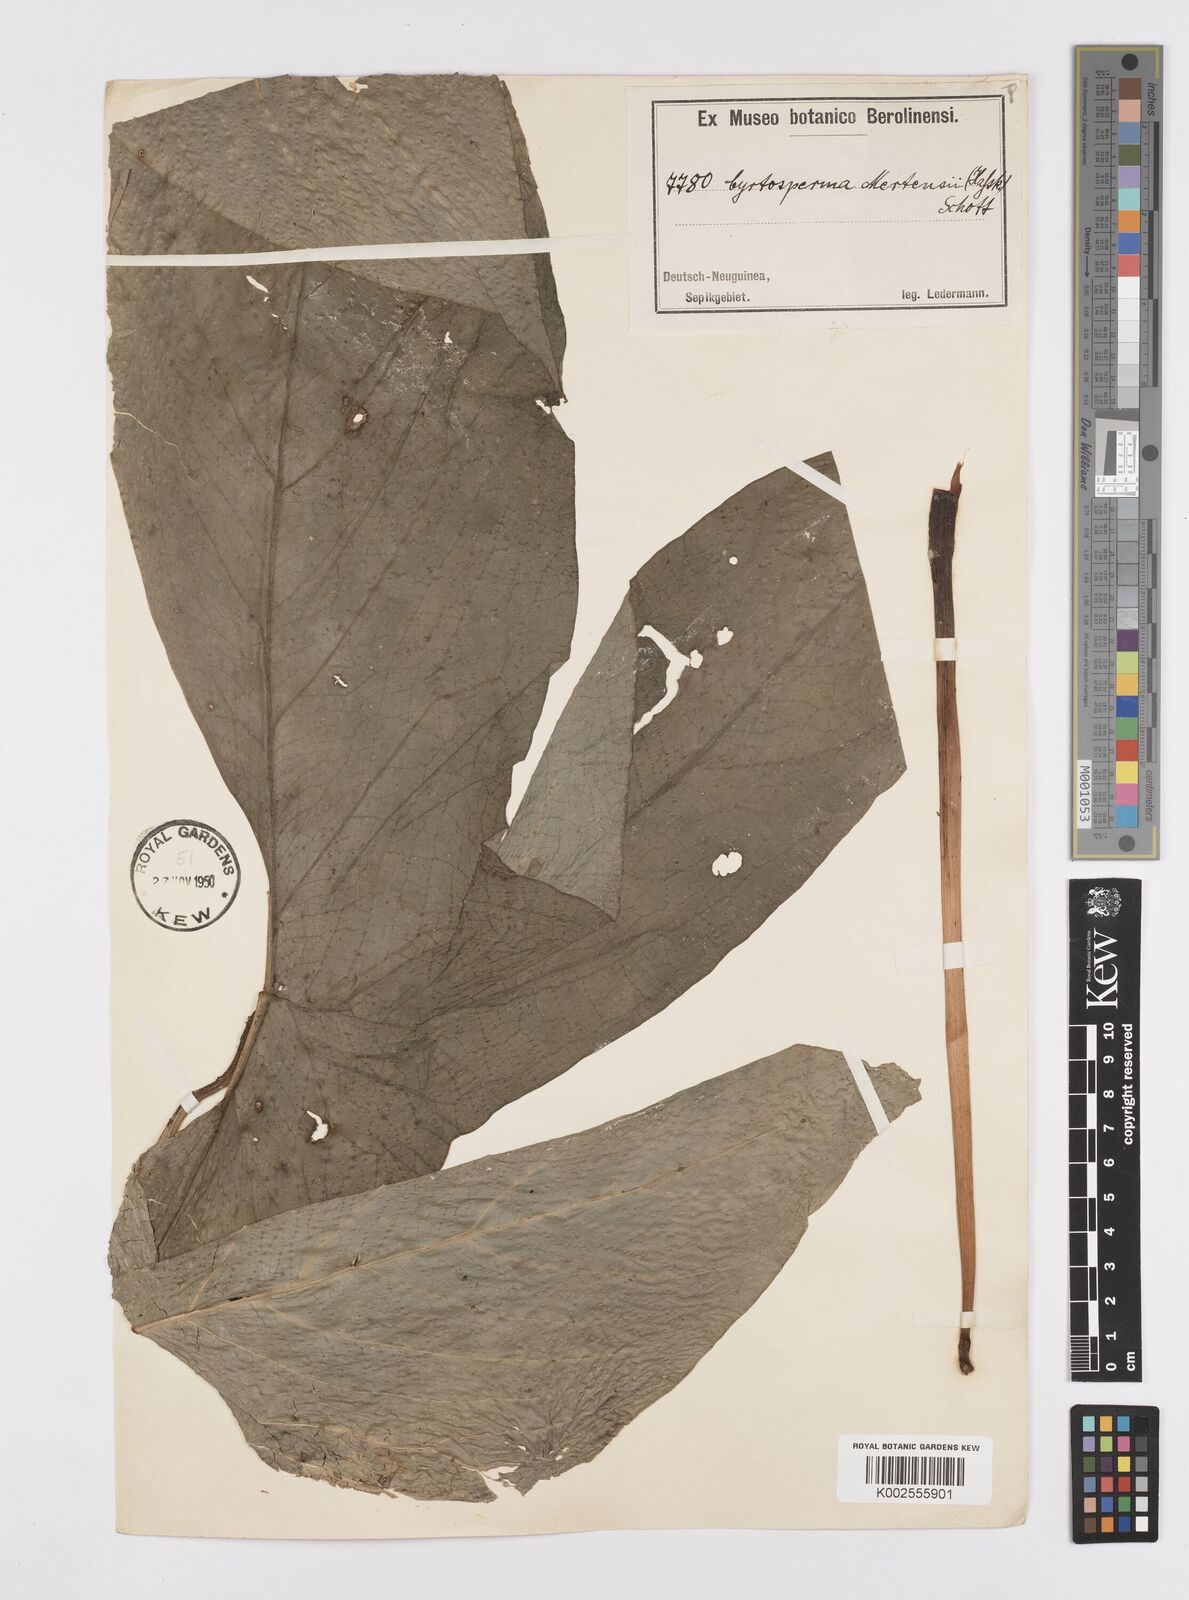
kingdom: Plantae
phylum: Tracheophyta
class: Liliopsida
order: Alismatales
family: Araceae
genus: Cyrtosperma
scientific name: Cyrtosperma merkusii
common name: Giant swamp-taro
